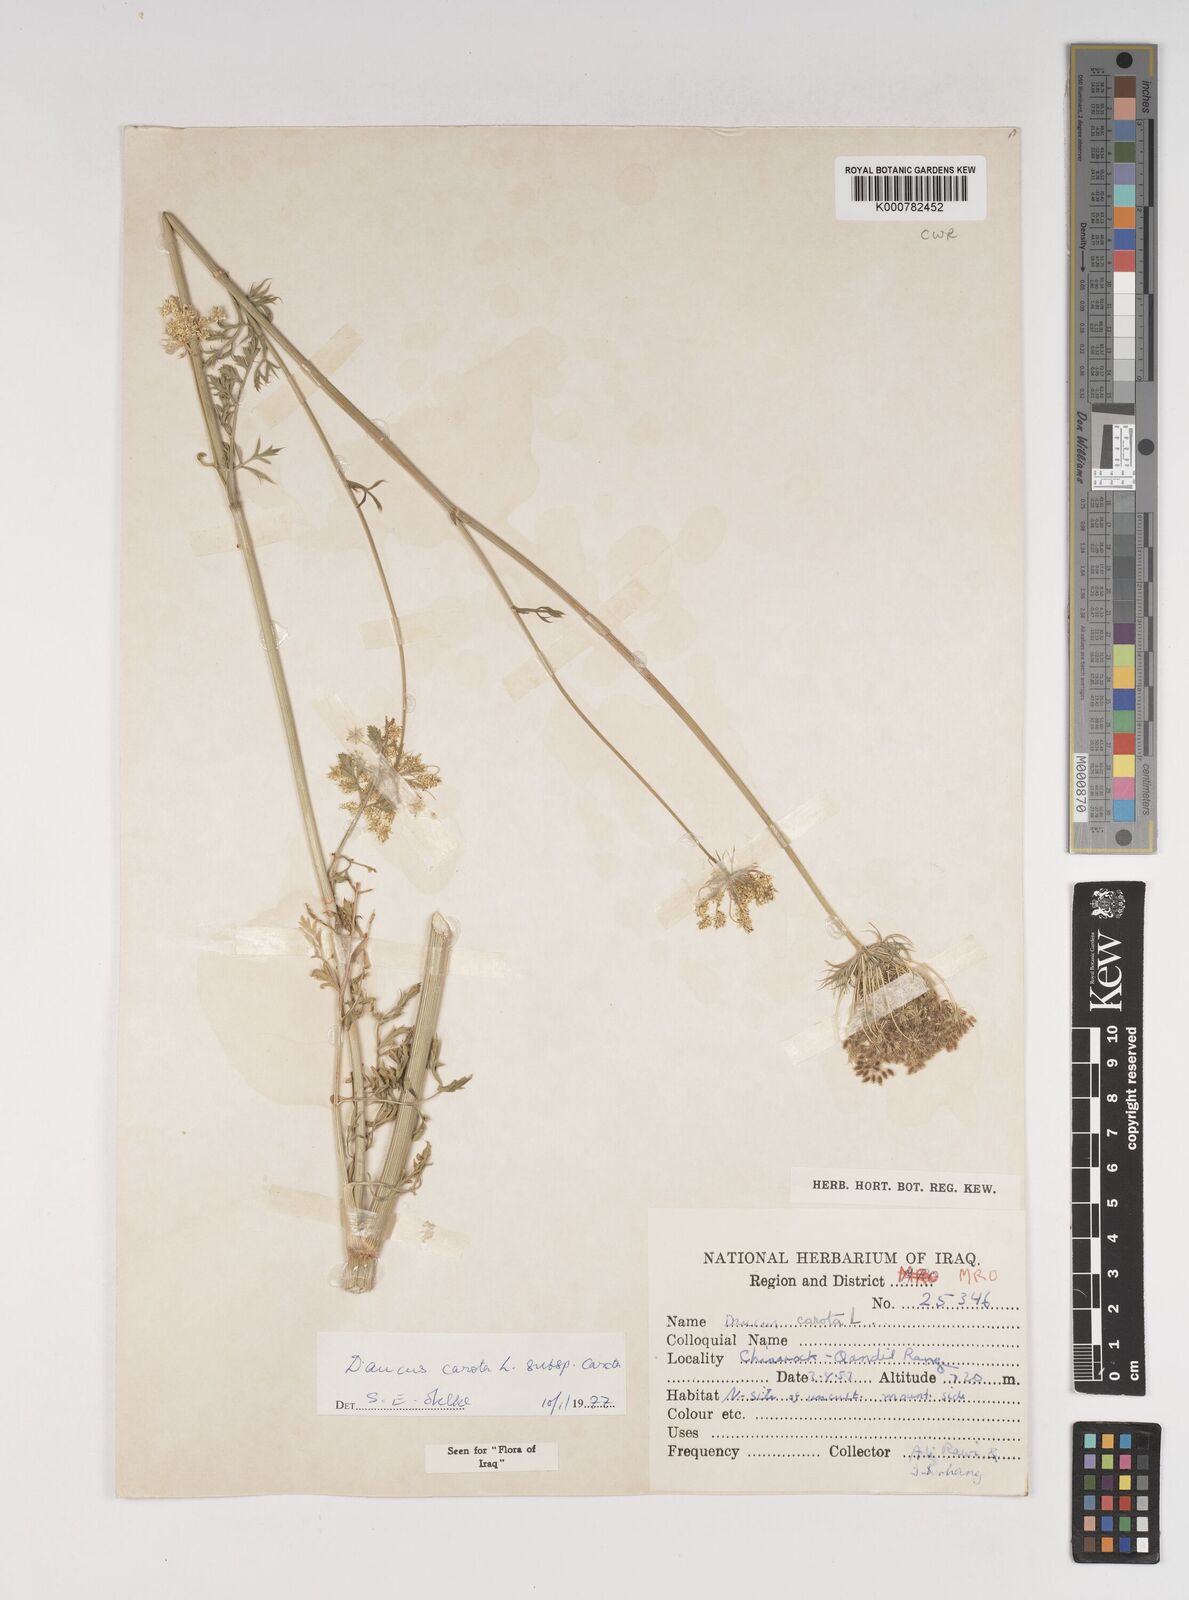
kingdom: Plantae
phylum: Tracheophyta
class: Magnoliopsida
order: Apiales
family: Apiaceae
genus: Daucus
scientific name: Daucus carota
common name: Wild carrot
